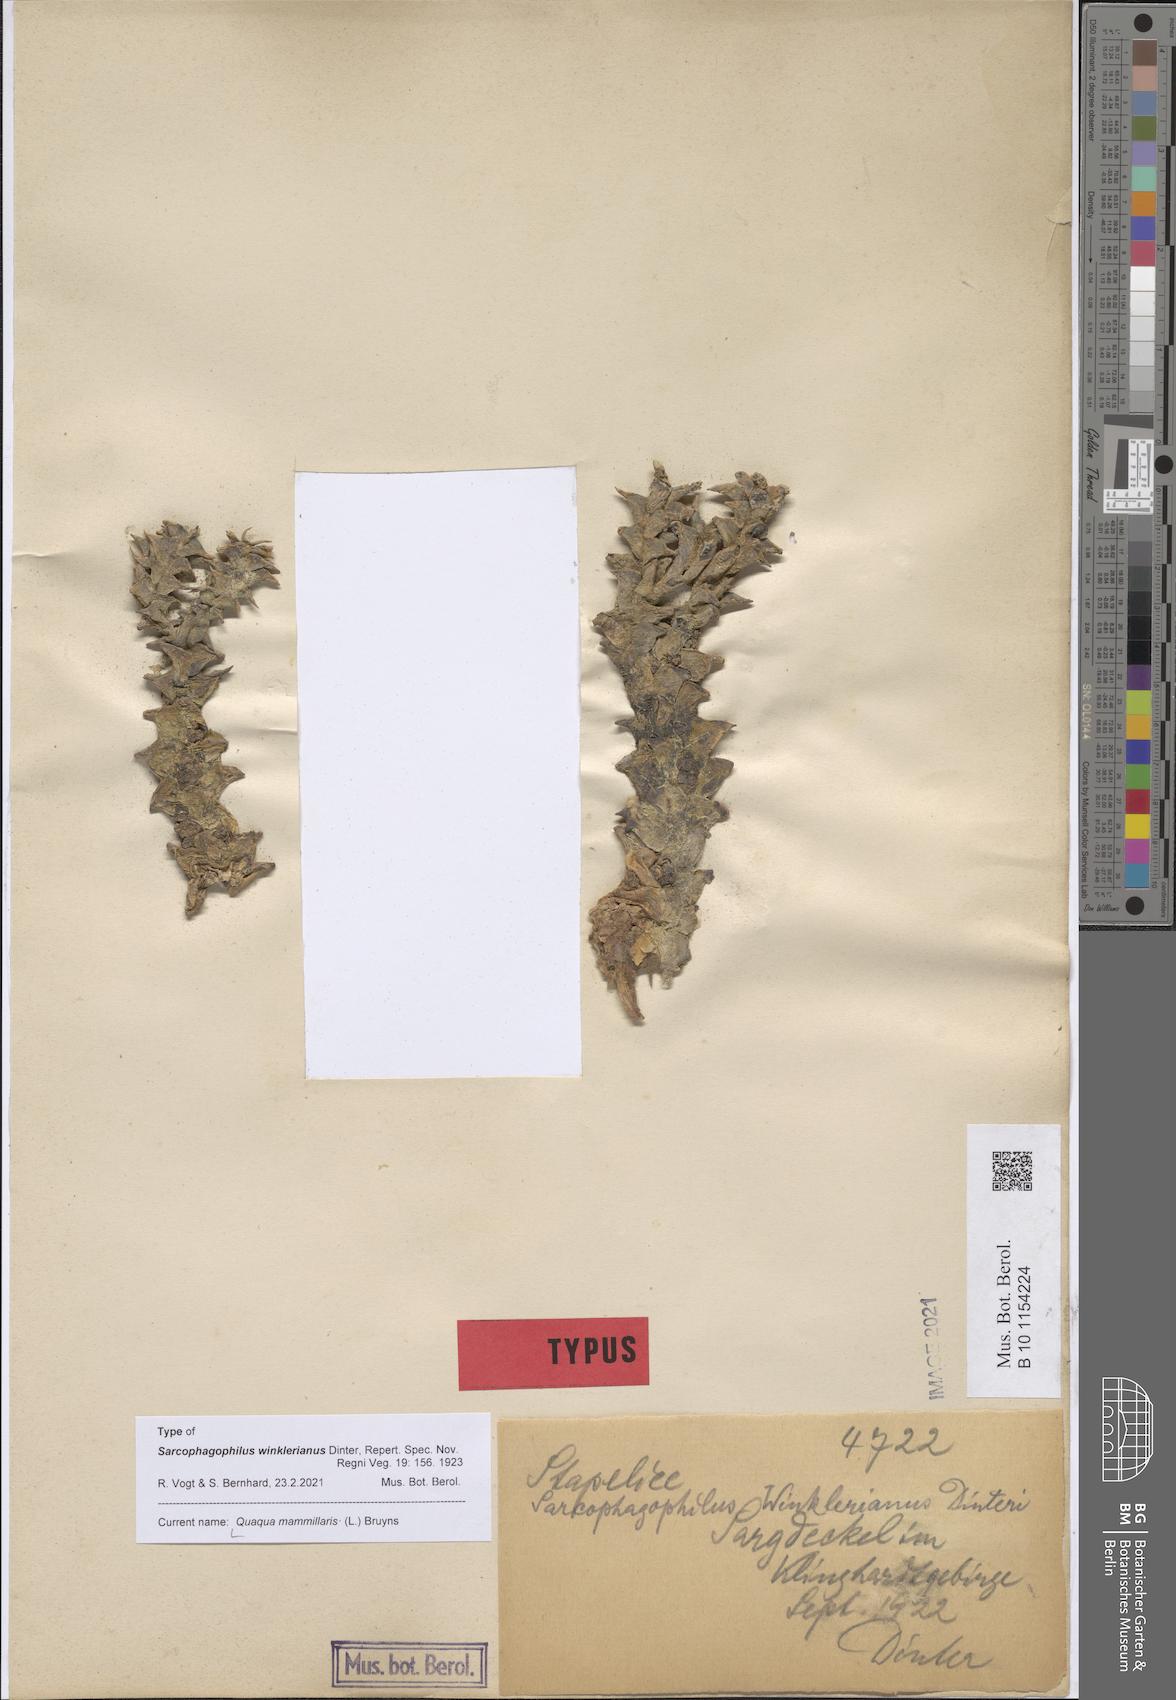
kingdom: Plantae
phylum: Tracheophyta
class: Magnoliopsida
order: Gentianales
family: Apocynaceae
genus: Ceropegia
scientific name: Ceropegia mammillaris
